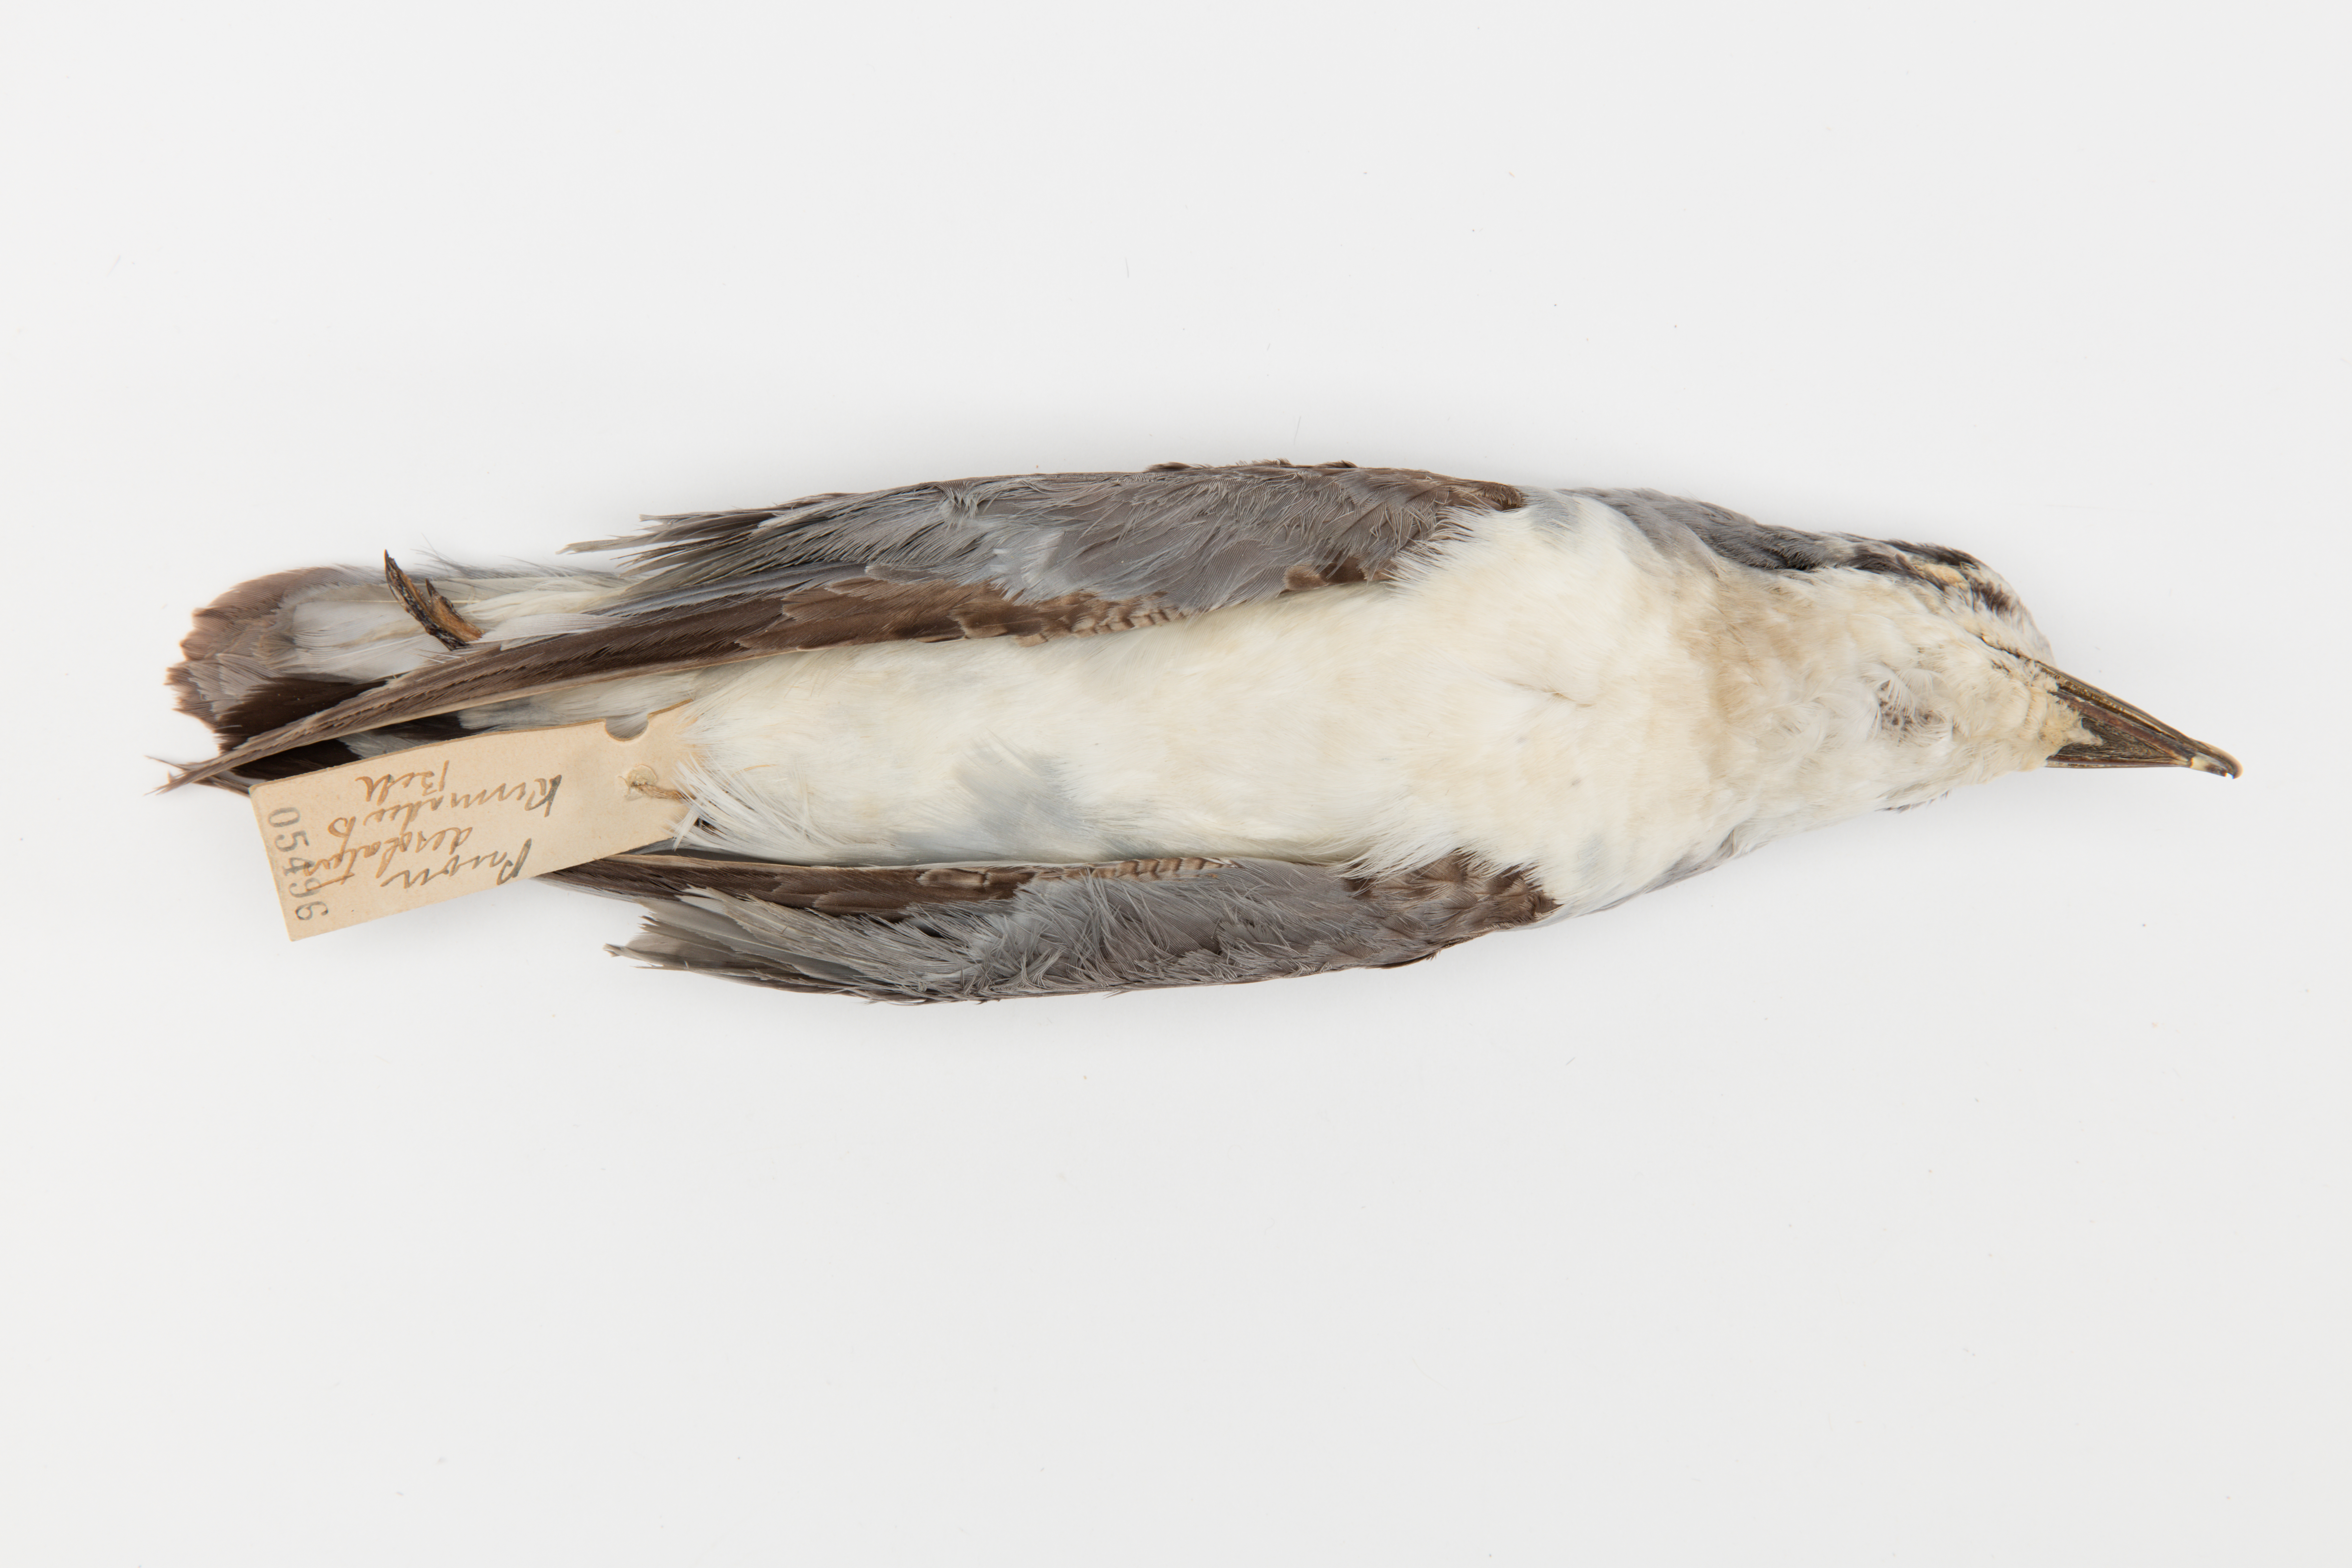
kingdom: Animalia
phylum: Chordata
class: Aves
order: Procellariiformes
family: Procellariidae
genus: Pachyptila
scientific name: Pachyptila desolata
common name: Antarctic prion
